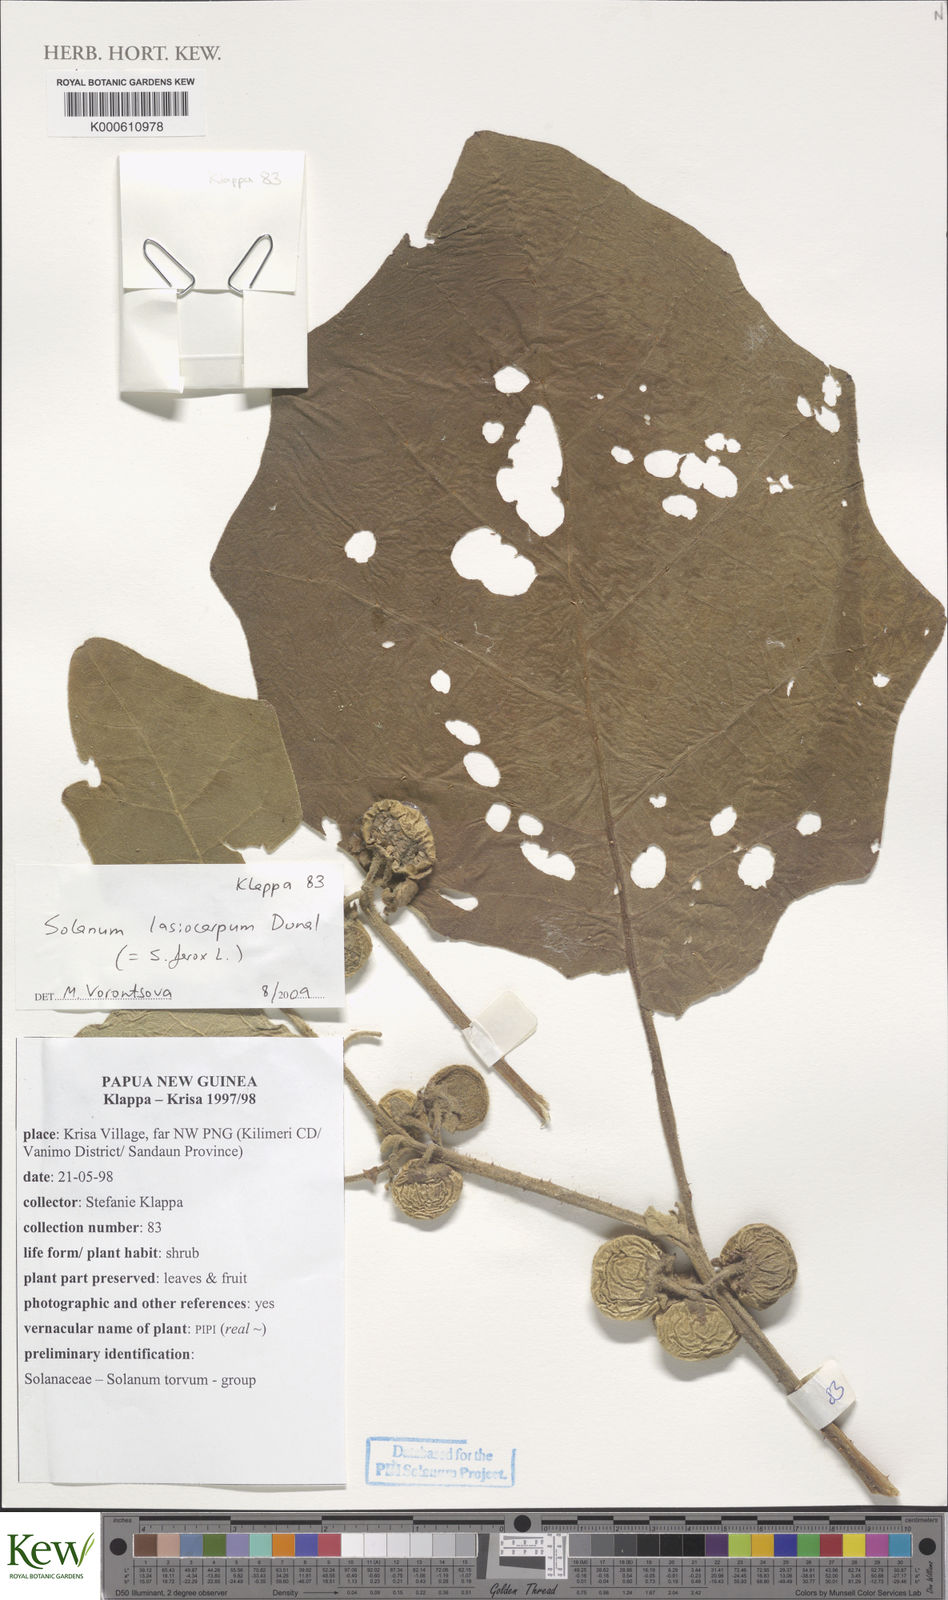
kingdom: Plantae
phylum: Tracheophyta
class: Magnoliopsida
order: Solanales
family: Solanaceae
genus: Solanum
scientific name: Solanum lasiocarpum
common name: Indian nightshade
